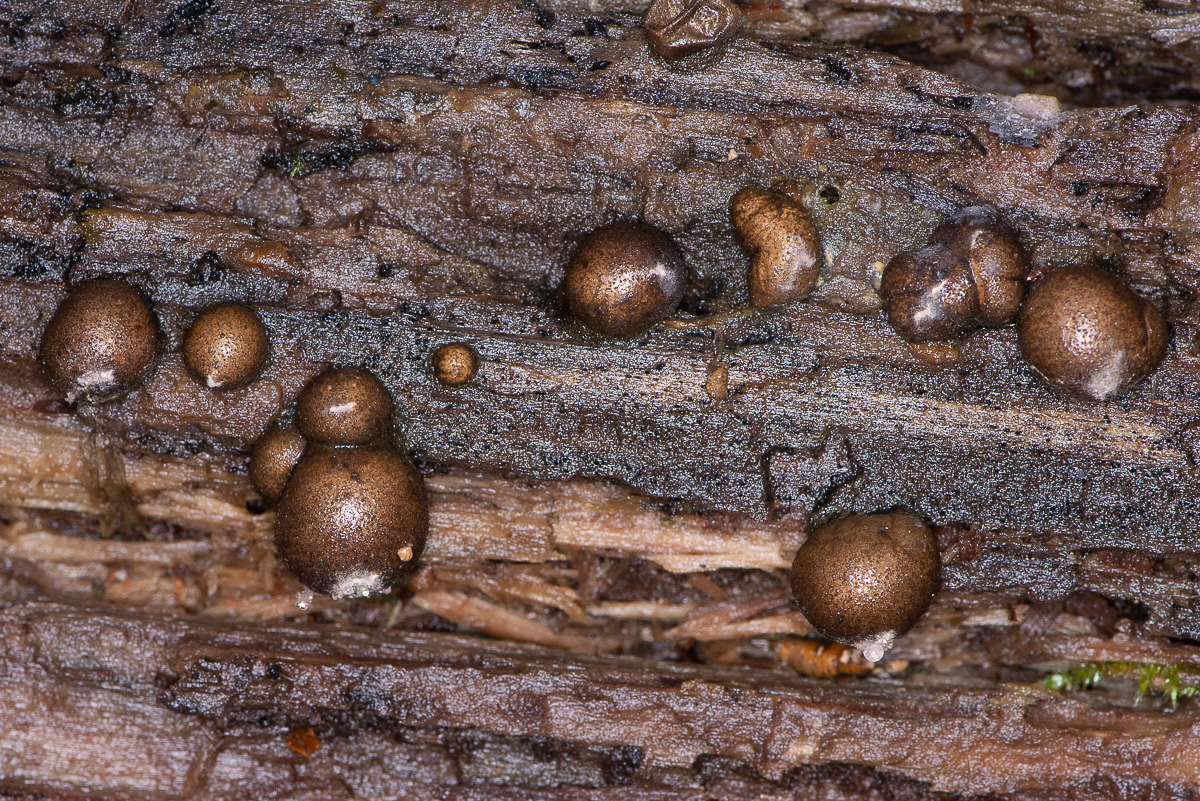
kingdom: Protozoa
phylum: Mycetozoa
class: Myxomycetes
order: Cribrariales
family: Tubiferaceae
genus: Lycogala
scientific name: Lycogala epidendrum
